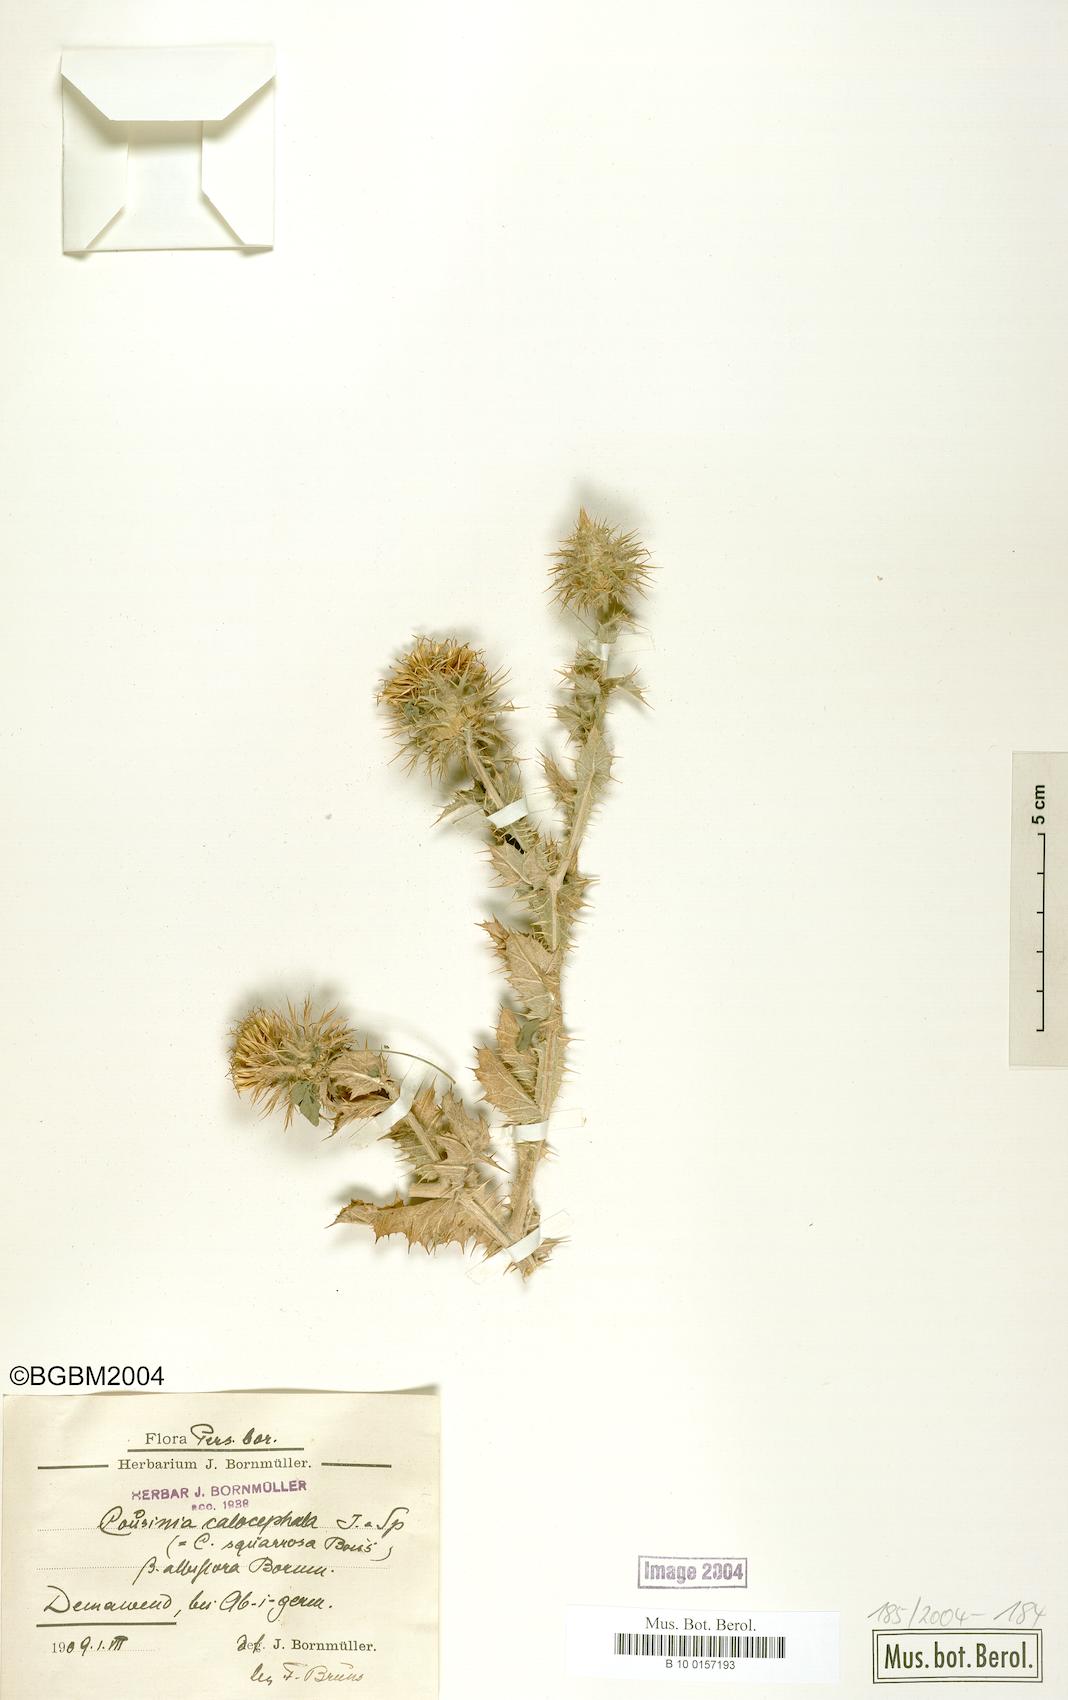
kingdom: Plantae
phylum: Tracheophyta
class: Magnoliopsida
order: Asterales
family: Asteraceae
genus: Cousinia
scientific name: Cousinia calocephala
